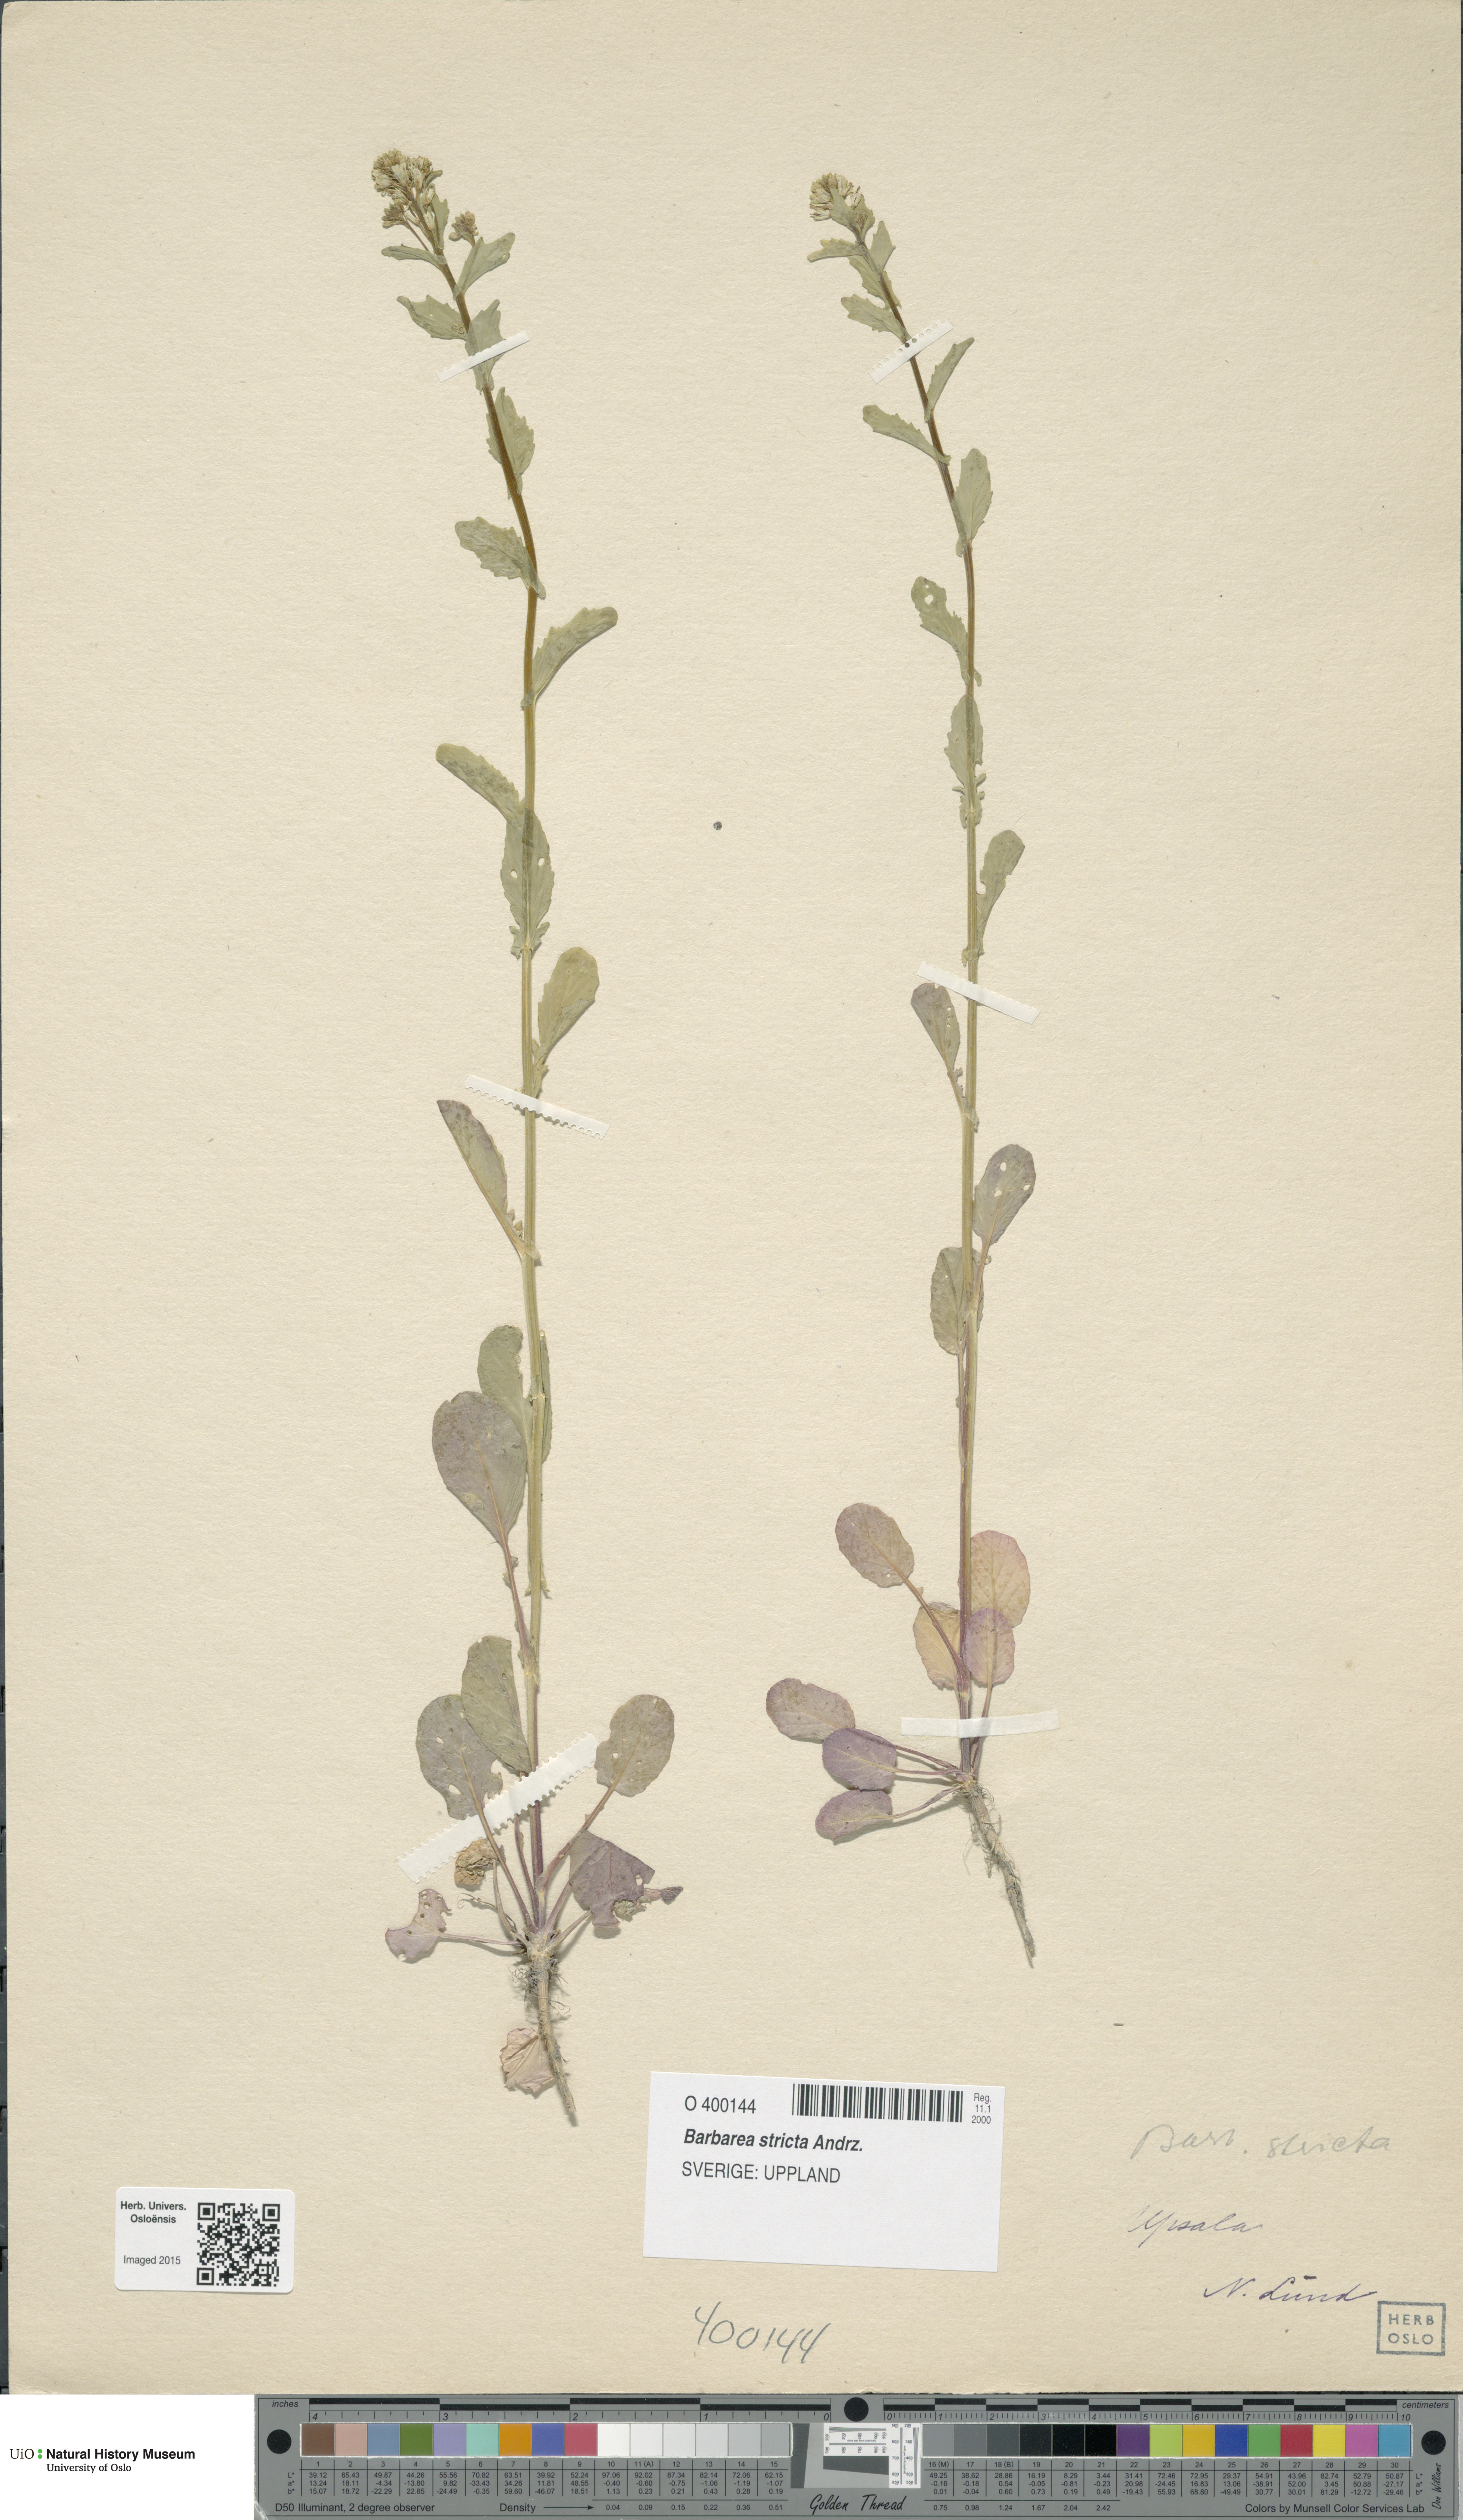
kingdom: Plantae
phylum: Tracheophyta
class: Magnoliopsida
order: Brassicales
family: Brassicaceae
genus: Barbarea
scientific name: Barbarea stricta
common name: Small-flowered winter-cress
